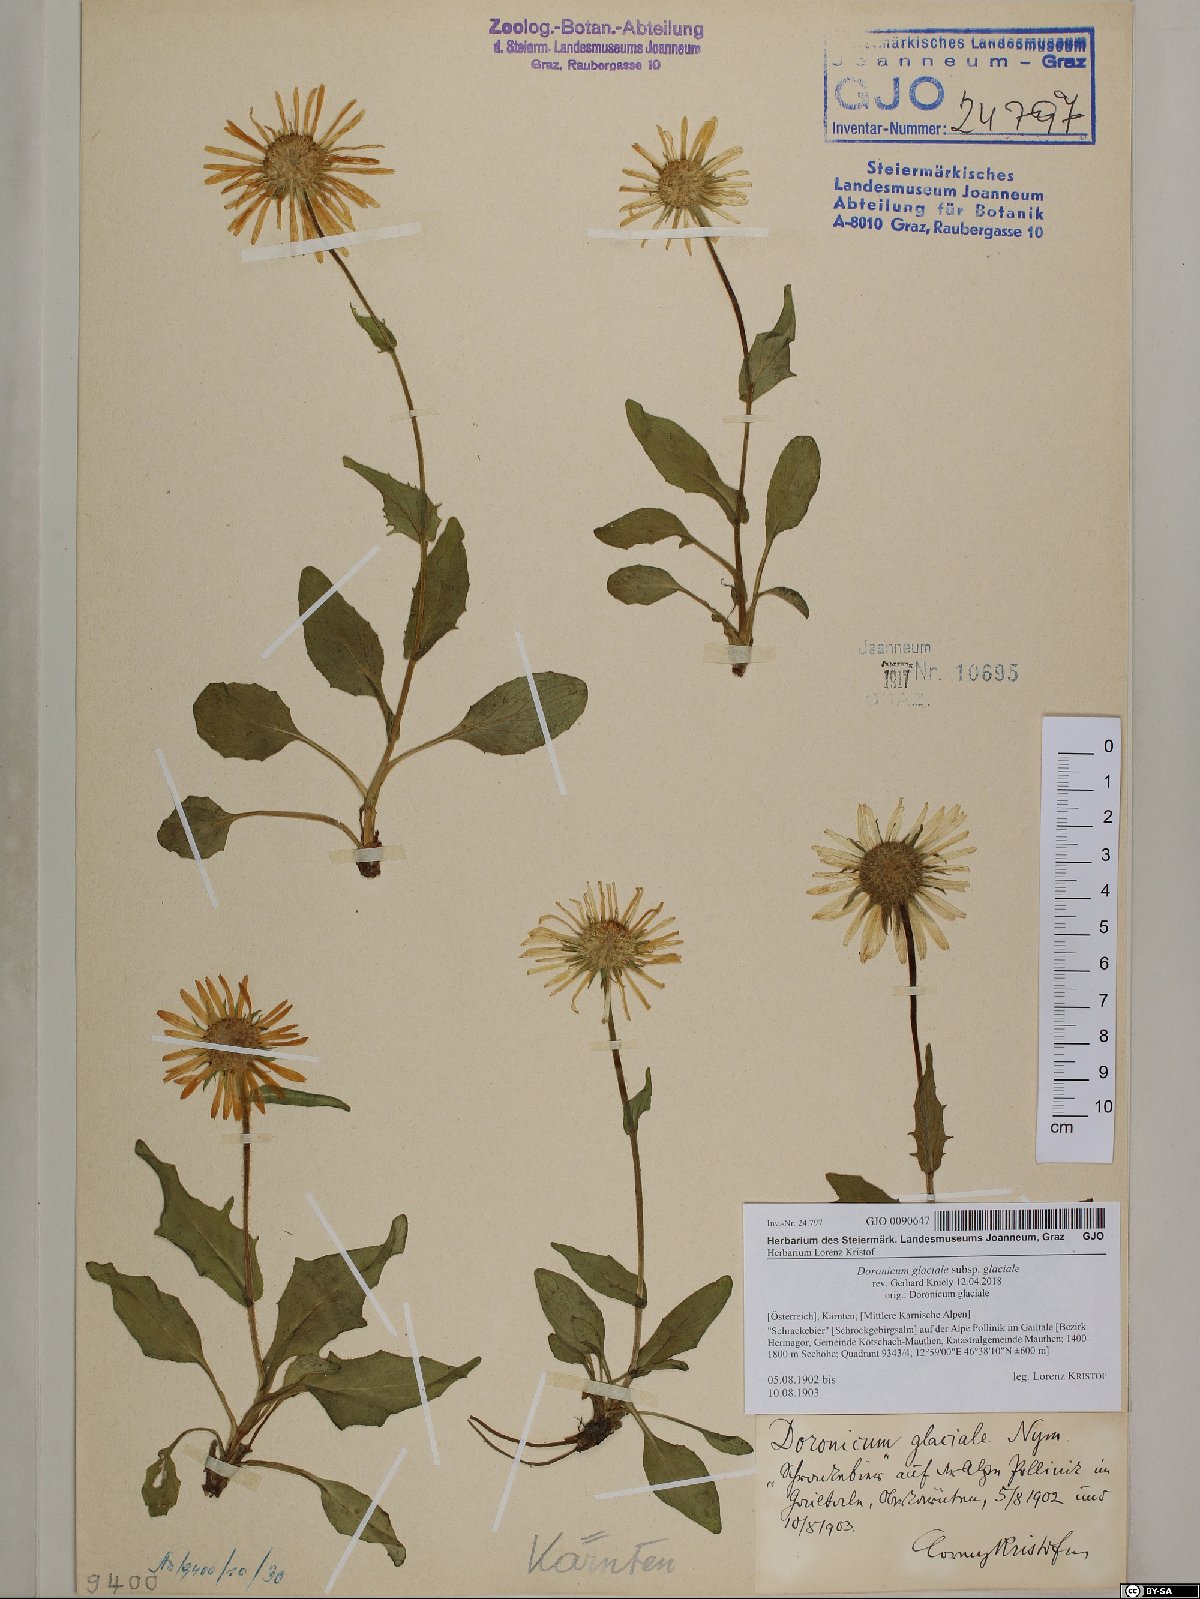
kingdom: Plantae
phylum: Tracheophyta
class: Magnoliopsida
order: Asterales
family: Asteraceae
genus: Doronicum
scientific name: Doronicum glaciale
